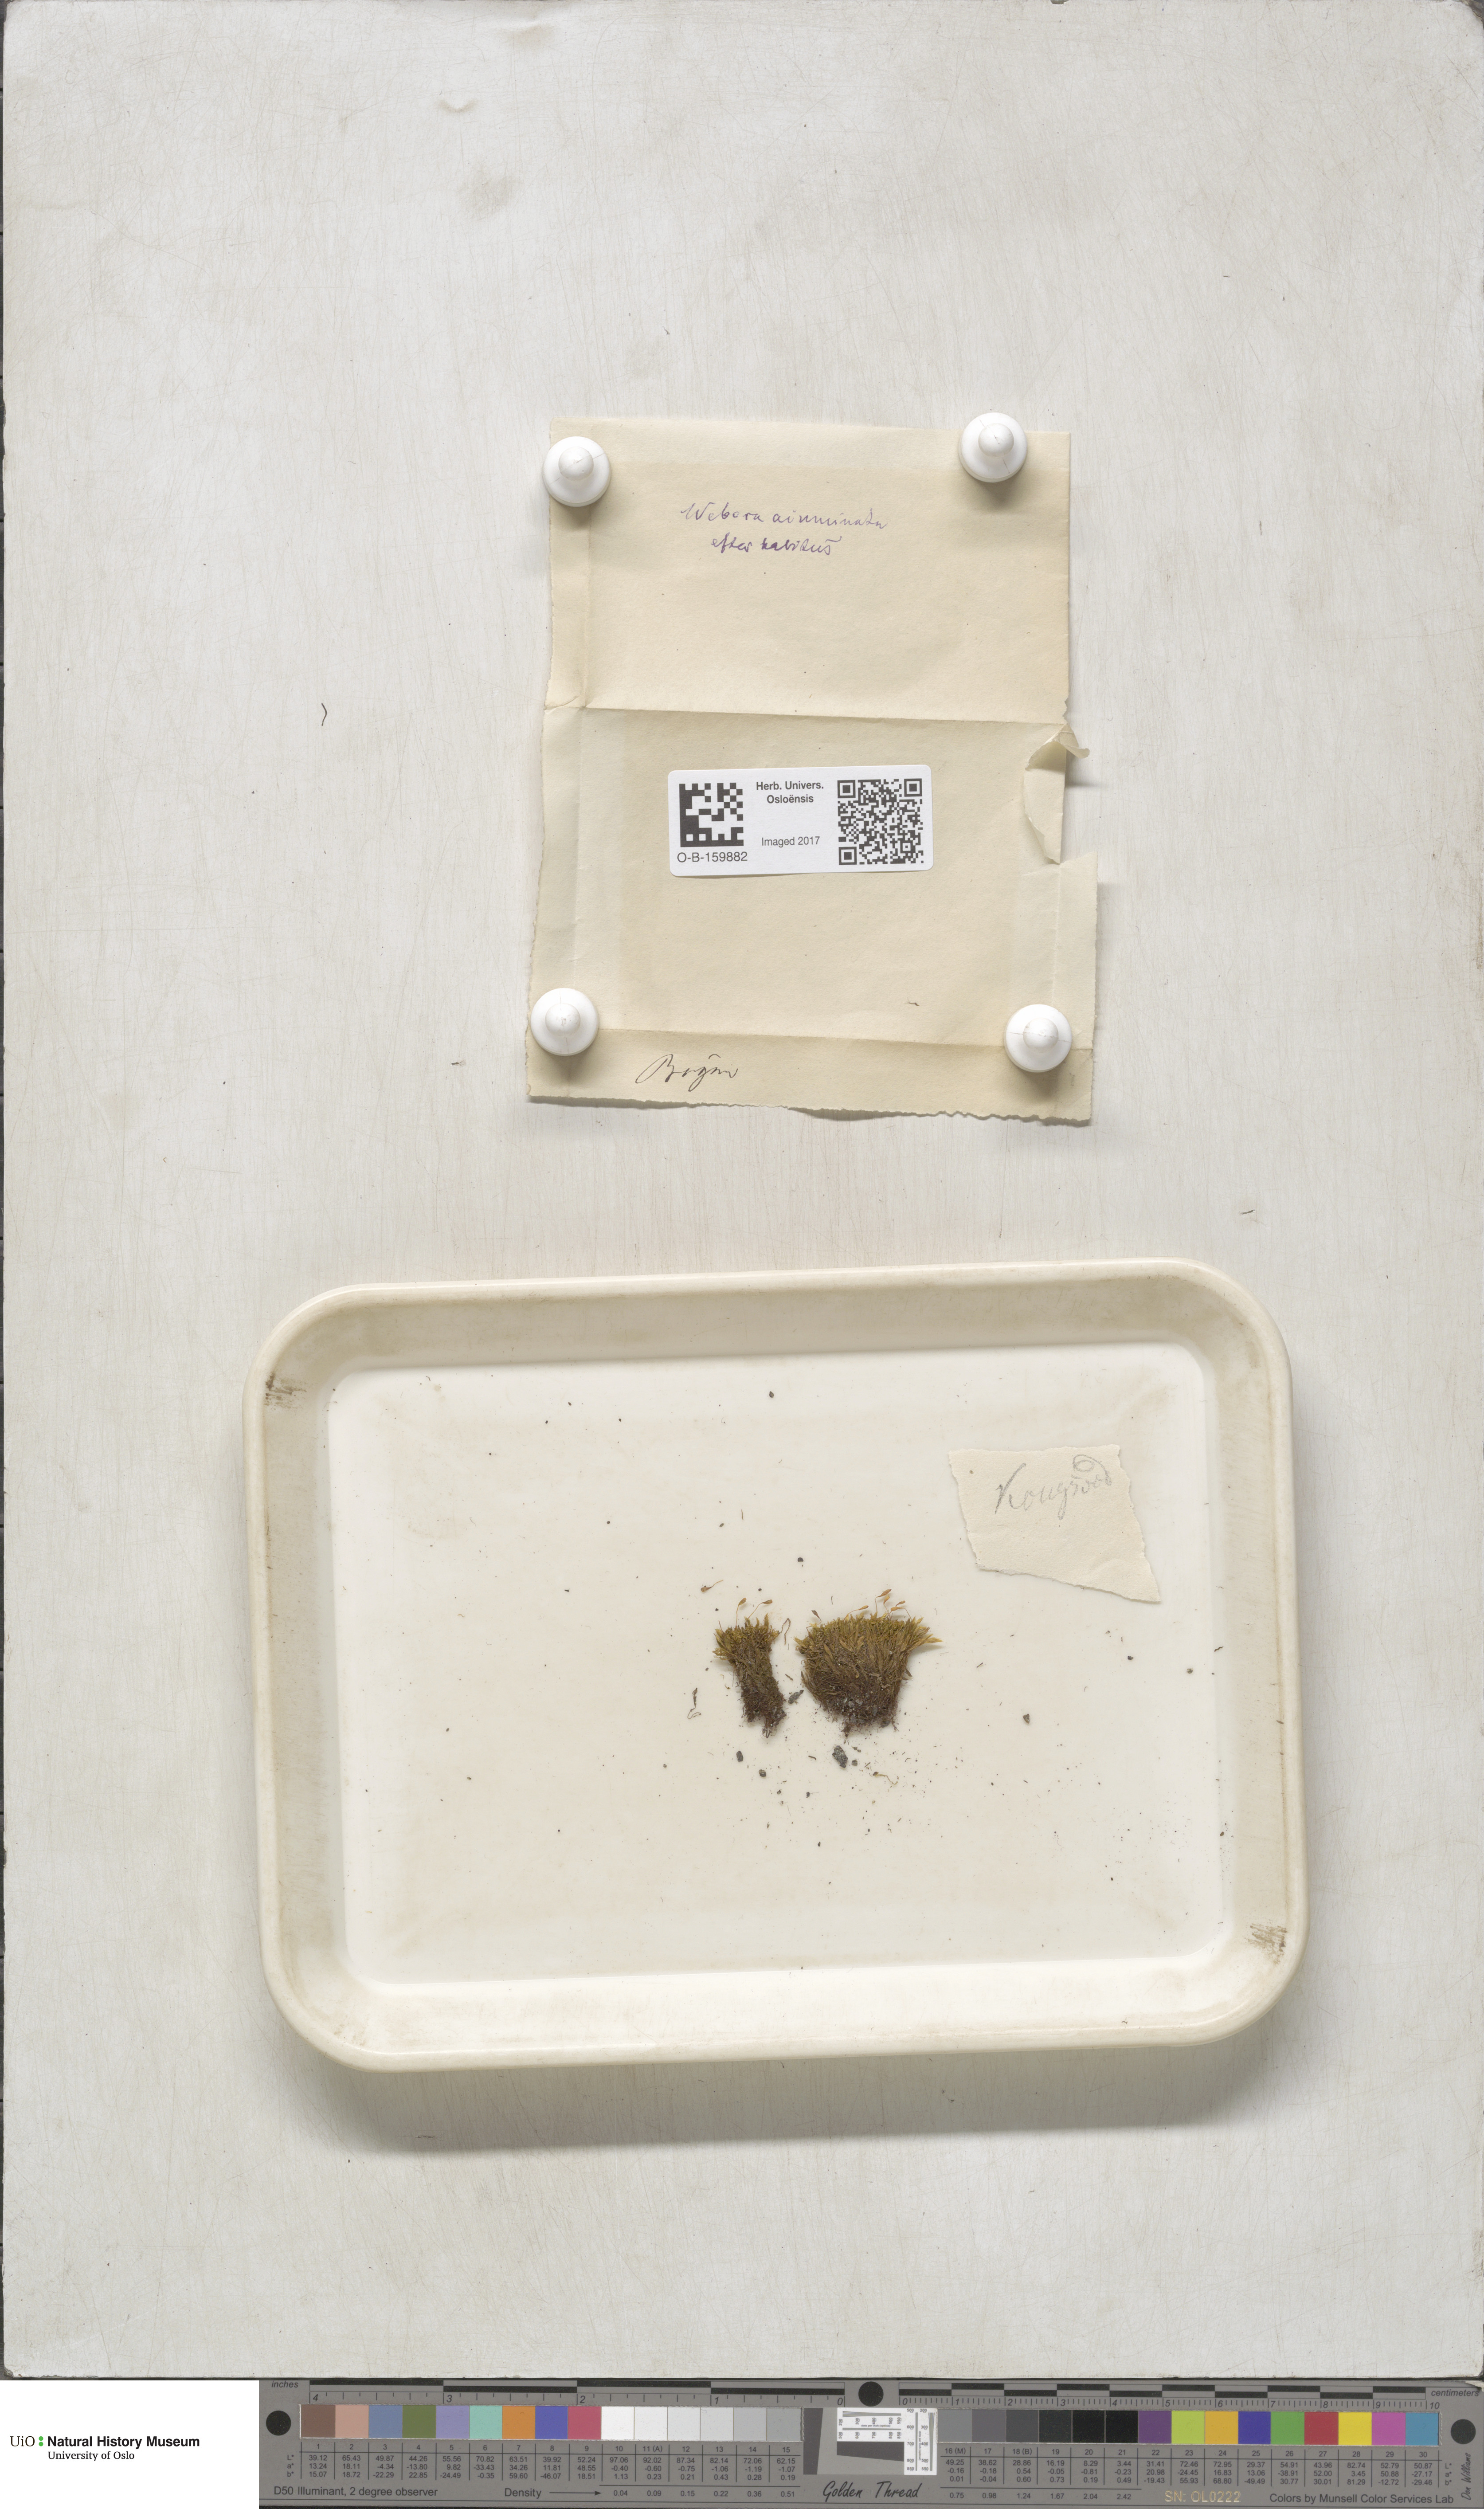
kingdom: Plantae
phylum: Bryophyta
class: Bryopsida
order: Bryales
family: Mniaceae
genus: Pohlia
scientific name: Pohlia elongata
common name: Long-fruited thread-moss
